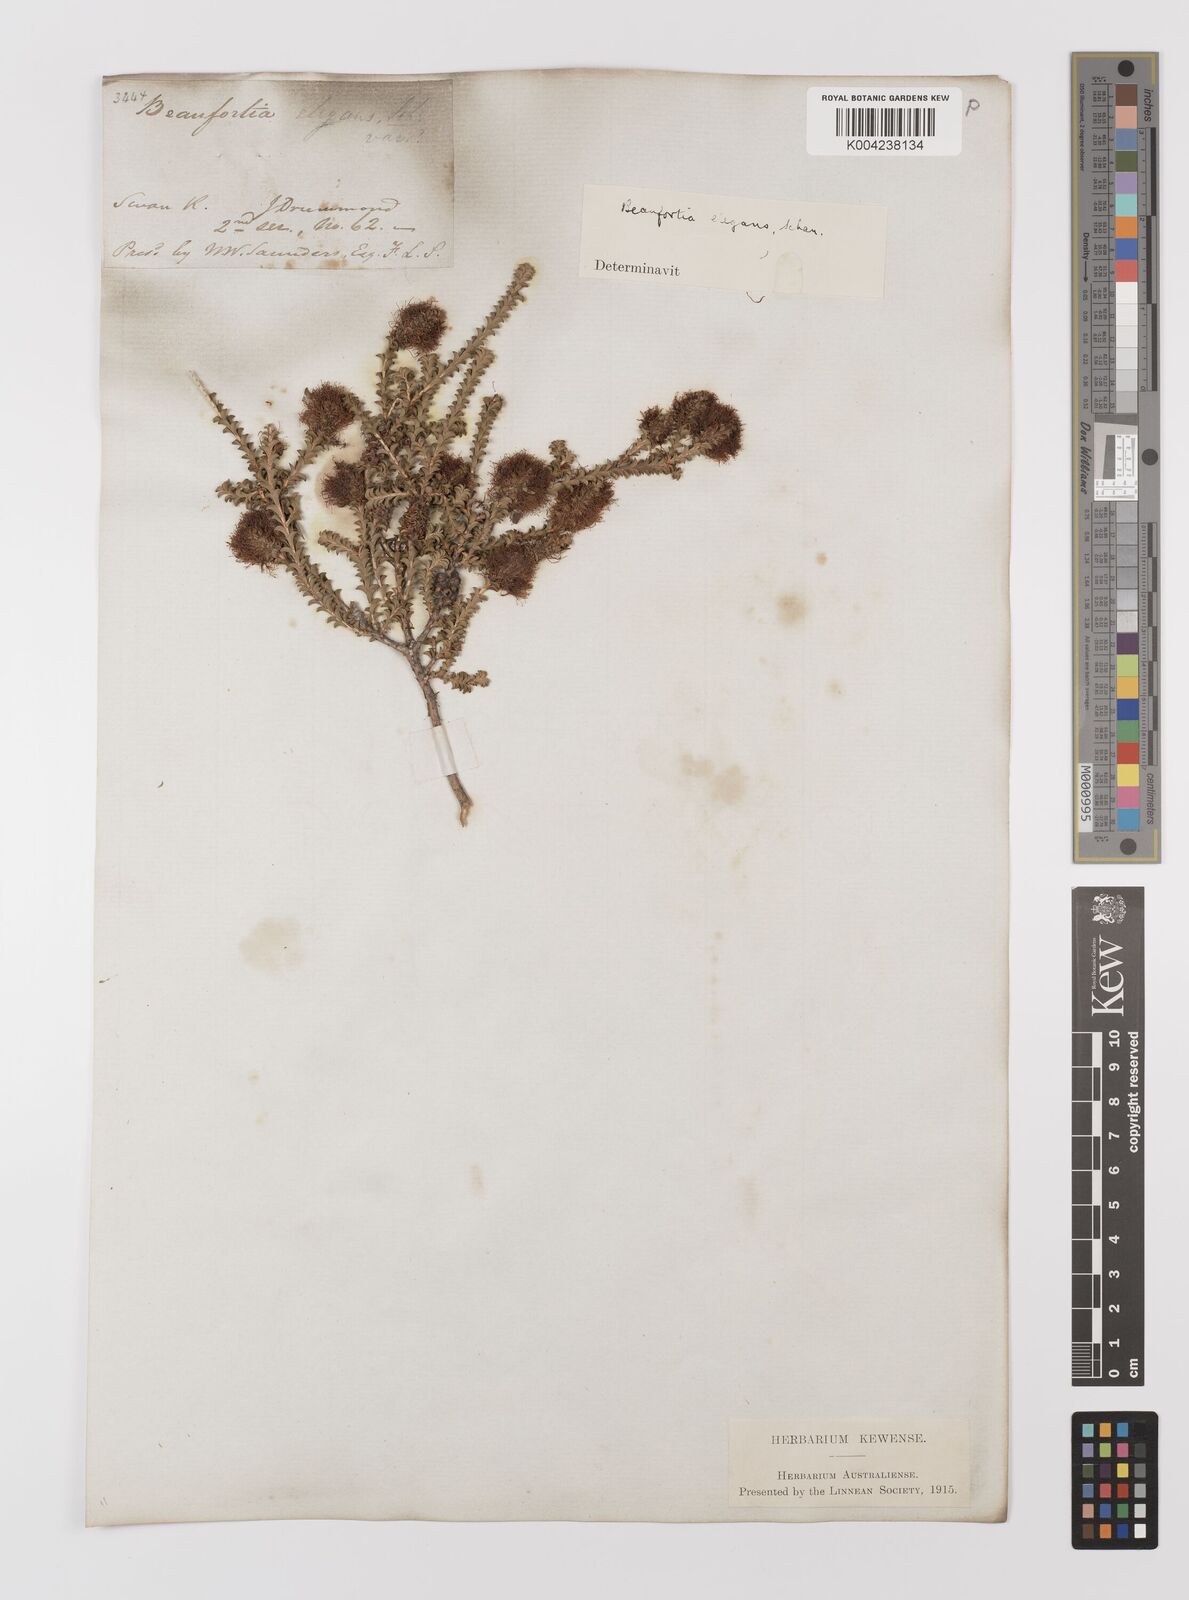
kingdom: Plantae
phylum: Tracheophyta
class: Magnoliopsida
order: Myrtales
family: Myrtaceae
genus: Melaleuca
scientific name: Melaleuca scitula
